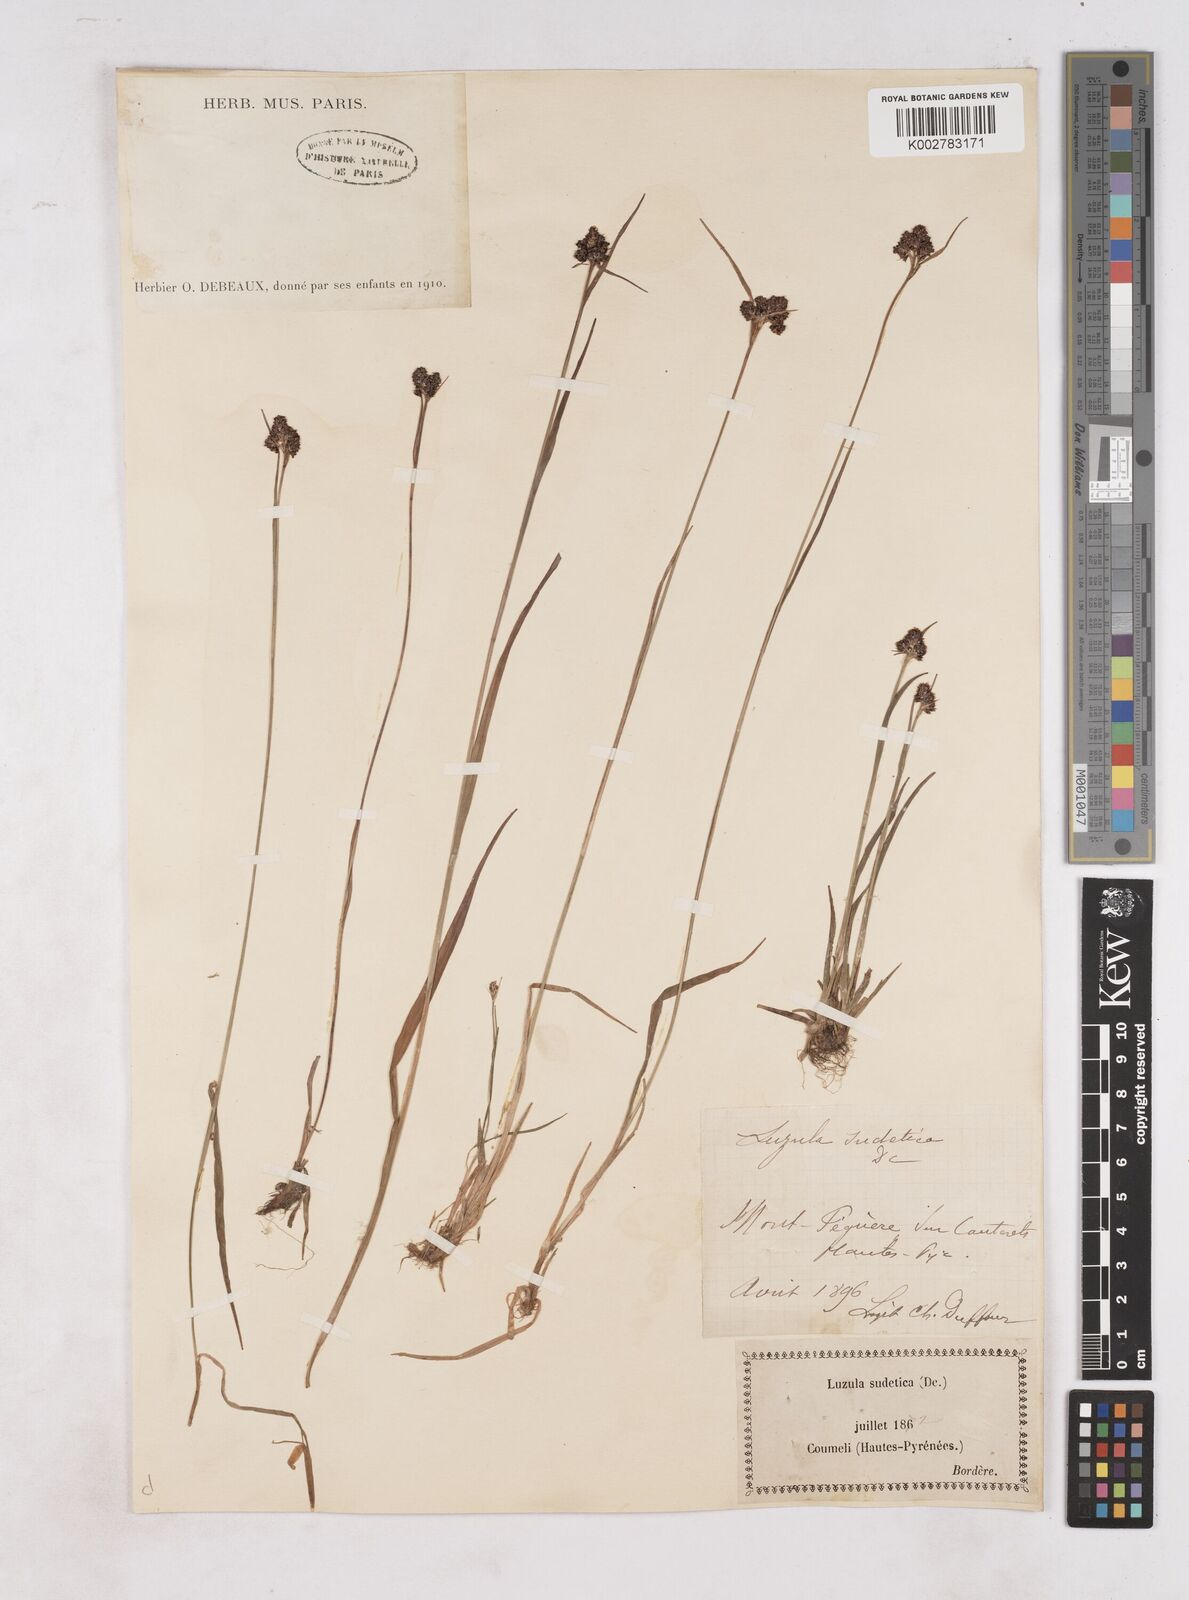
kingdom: Plantae
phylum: Tracheophyta
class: Liliopsida
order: Poales
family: Juncaceae
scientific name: Juncaceae
